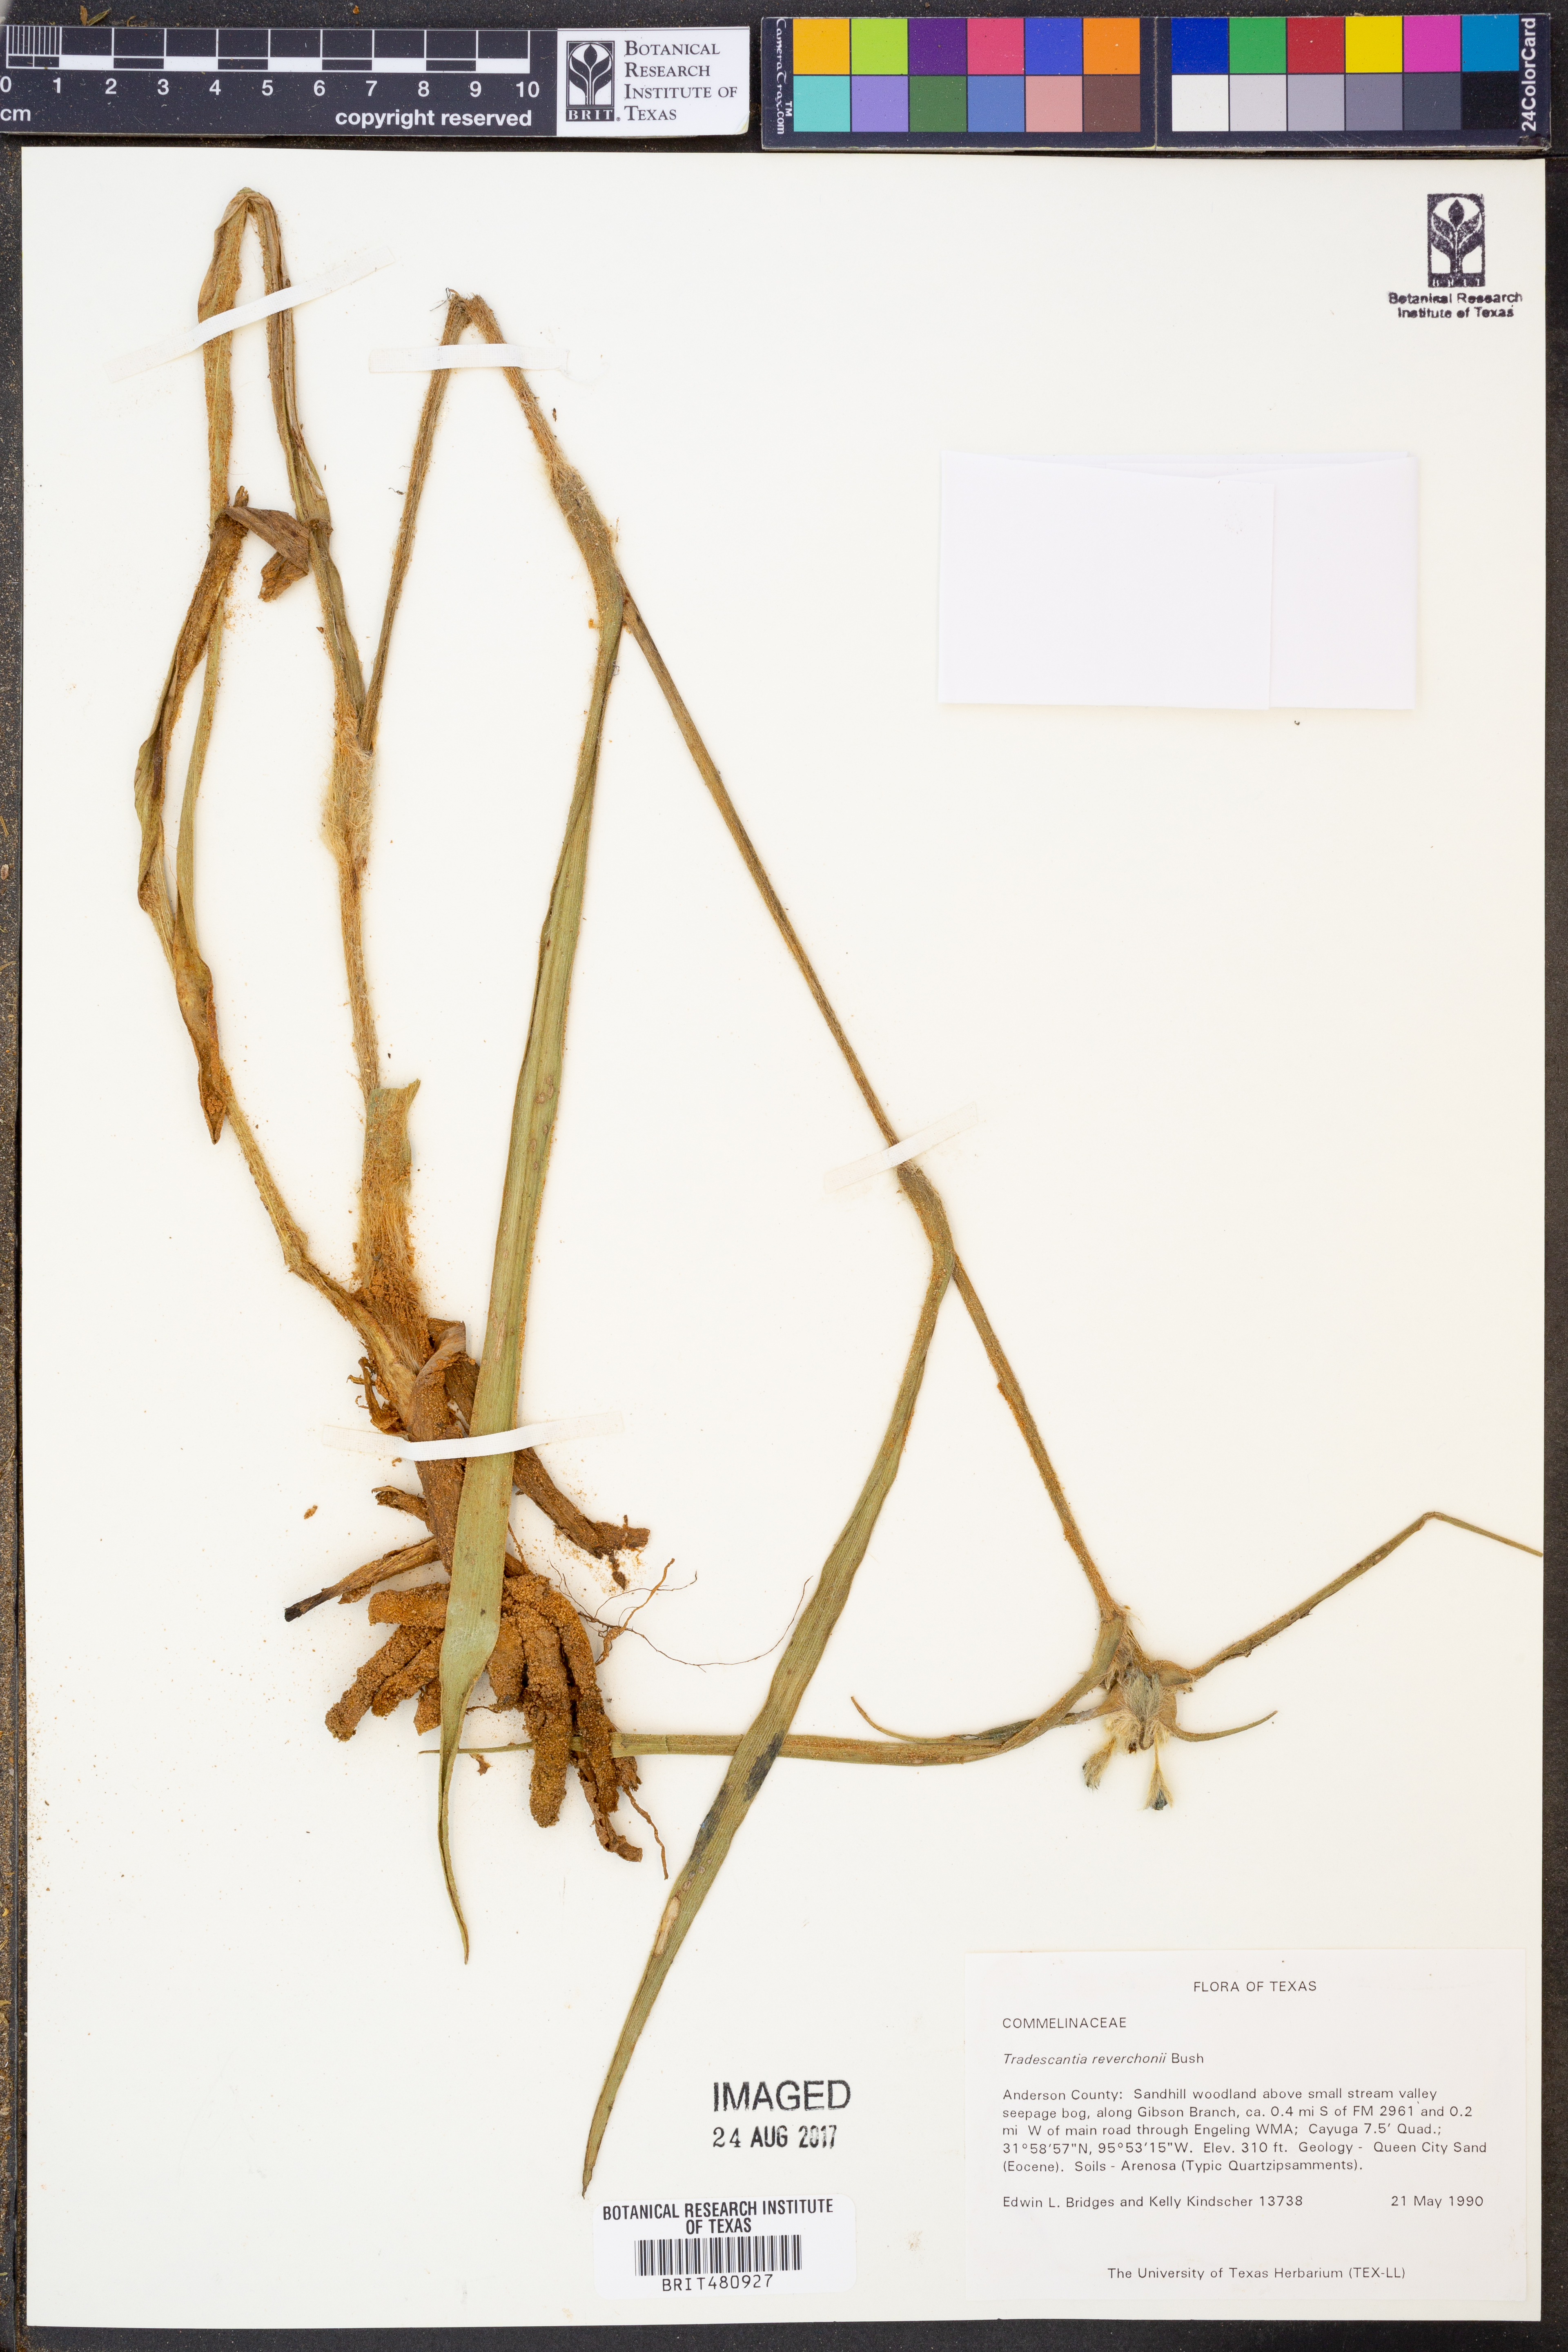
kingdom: Plantae
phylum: Tracheophyta
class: Liliopsida
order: Commelinales
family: Commelinaceae
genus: Tradescantia
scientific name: Tradescantia reverchonii
